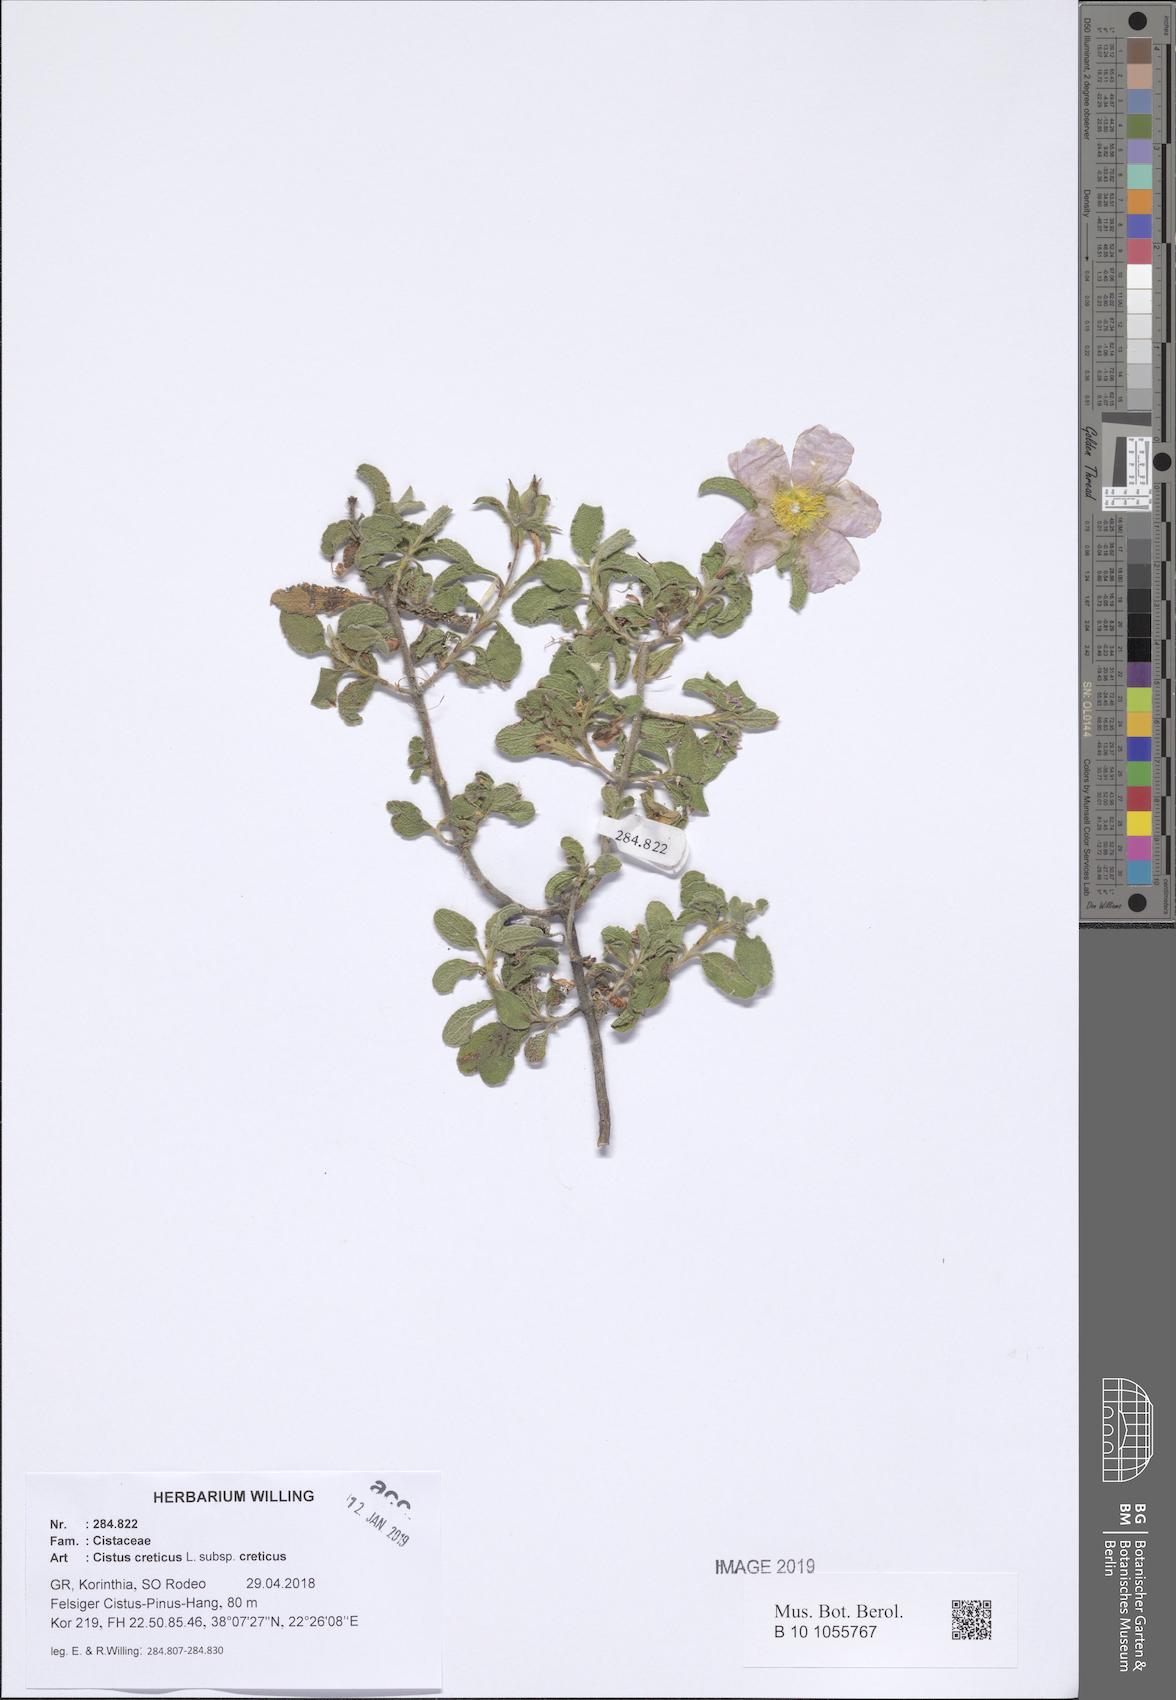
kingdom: Plantae
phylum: Tracheophyta
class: Magnoliopsida
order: Malvales
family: Cistaceae
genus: Cistus
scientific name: Cistus creticus
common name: Cretan rockrose
